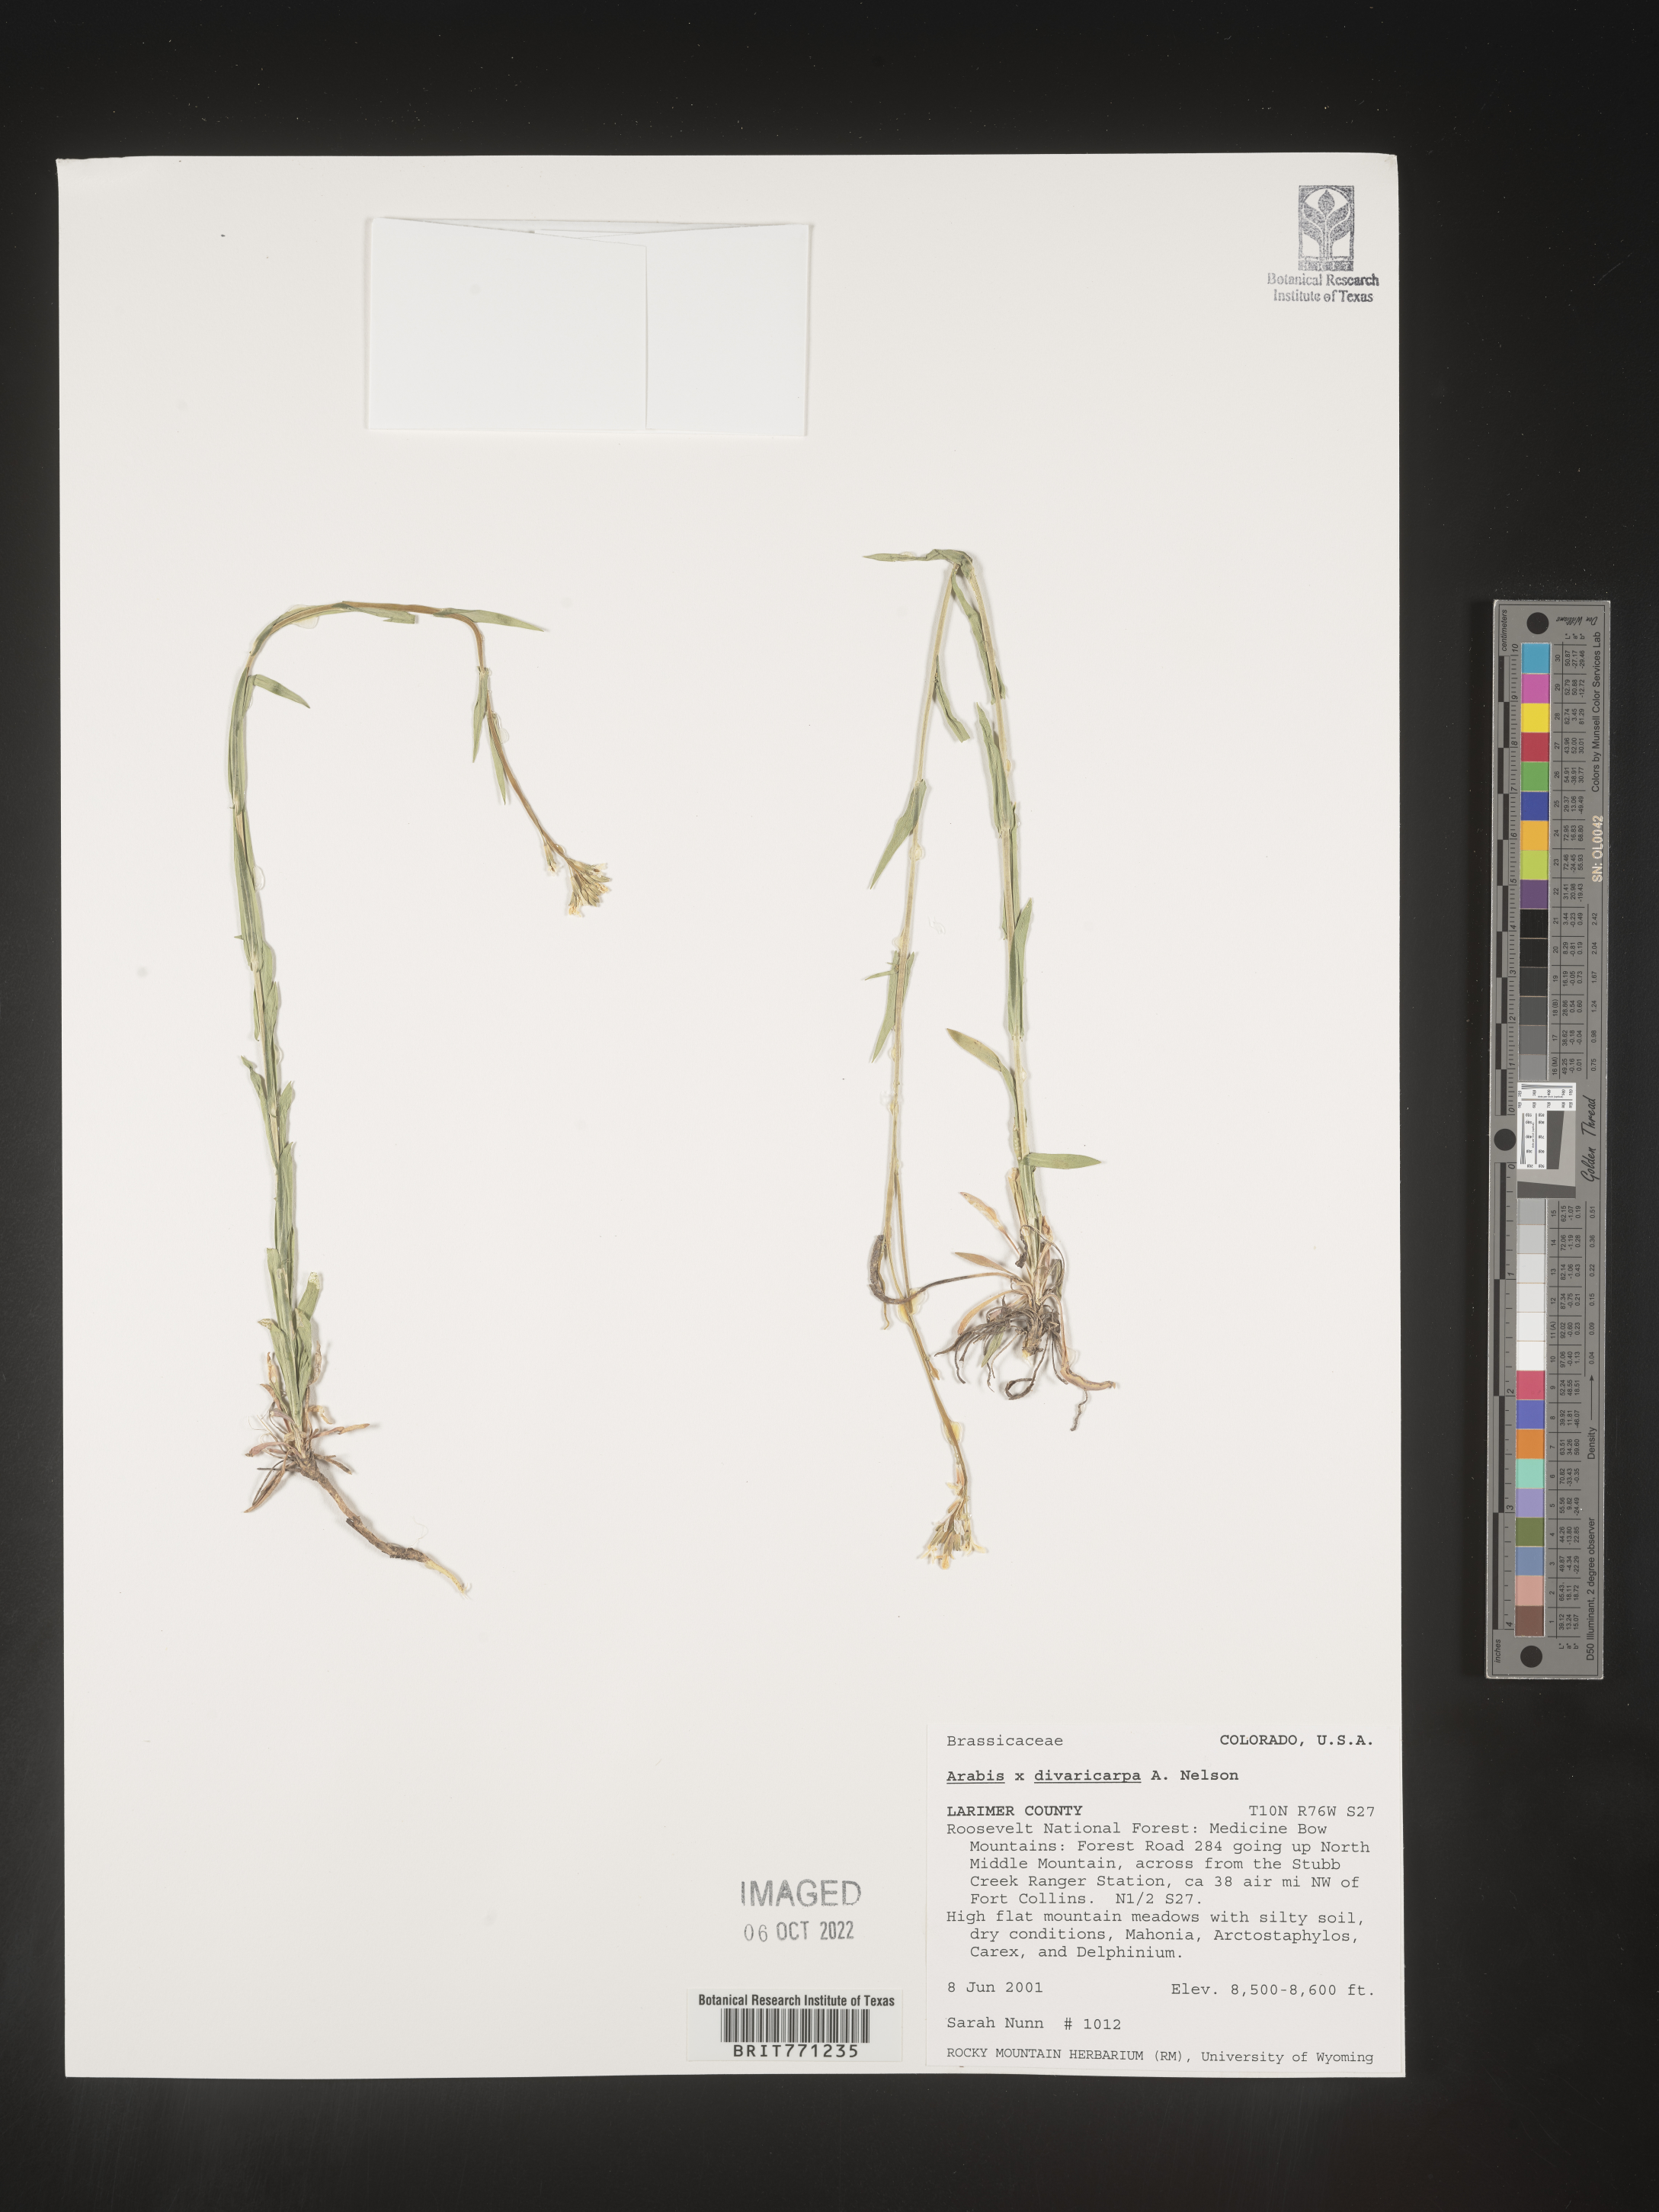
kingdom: Plantae
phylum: Tracheophyta
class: Magnoliopsida
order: Brassicales
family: Brassicaceae
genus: Boechera
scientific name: Boechera divaricarpa
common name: Divaricate rockcress
